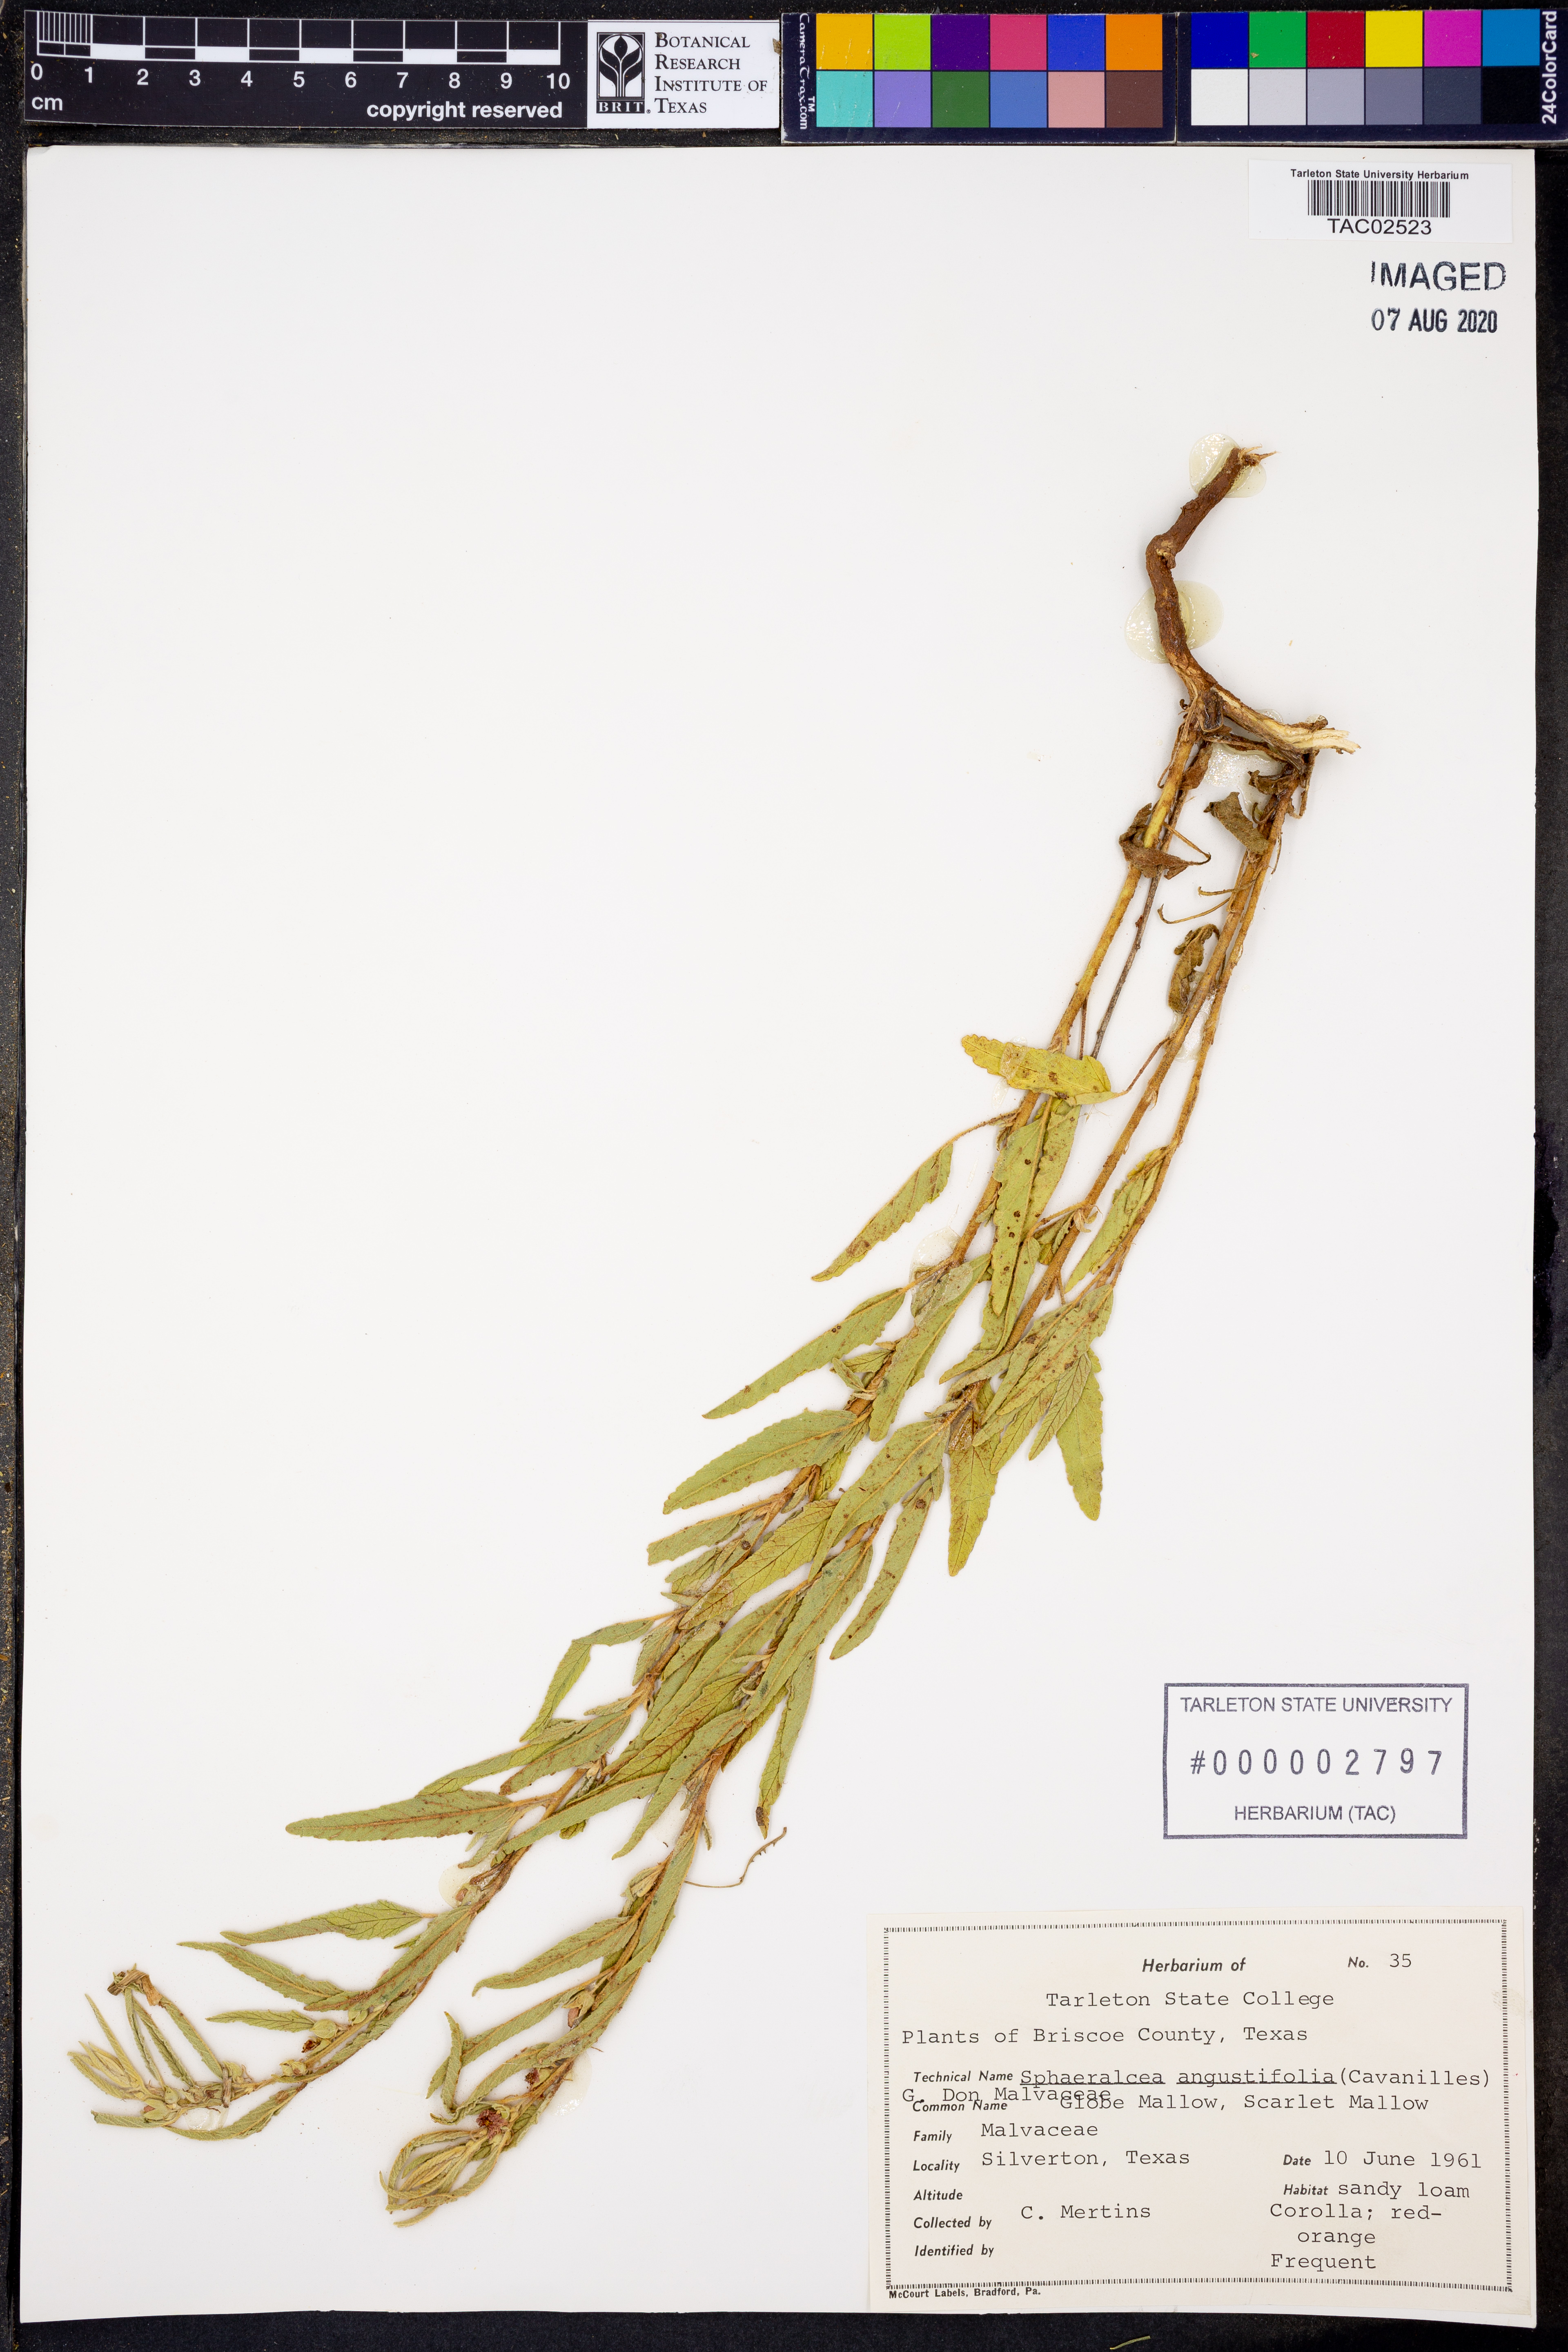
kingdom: Plantae
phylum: Tracheophyta
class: Magnoliopsida
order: Malvales
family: Malvaceae
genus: Sphaeralcea
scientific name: Sphaeralcea angustifolia
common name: Copper globe-mallow
